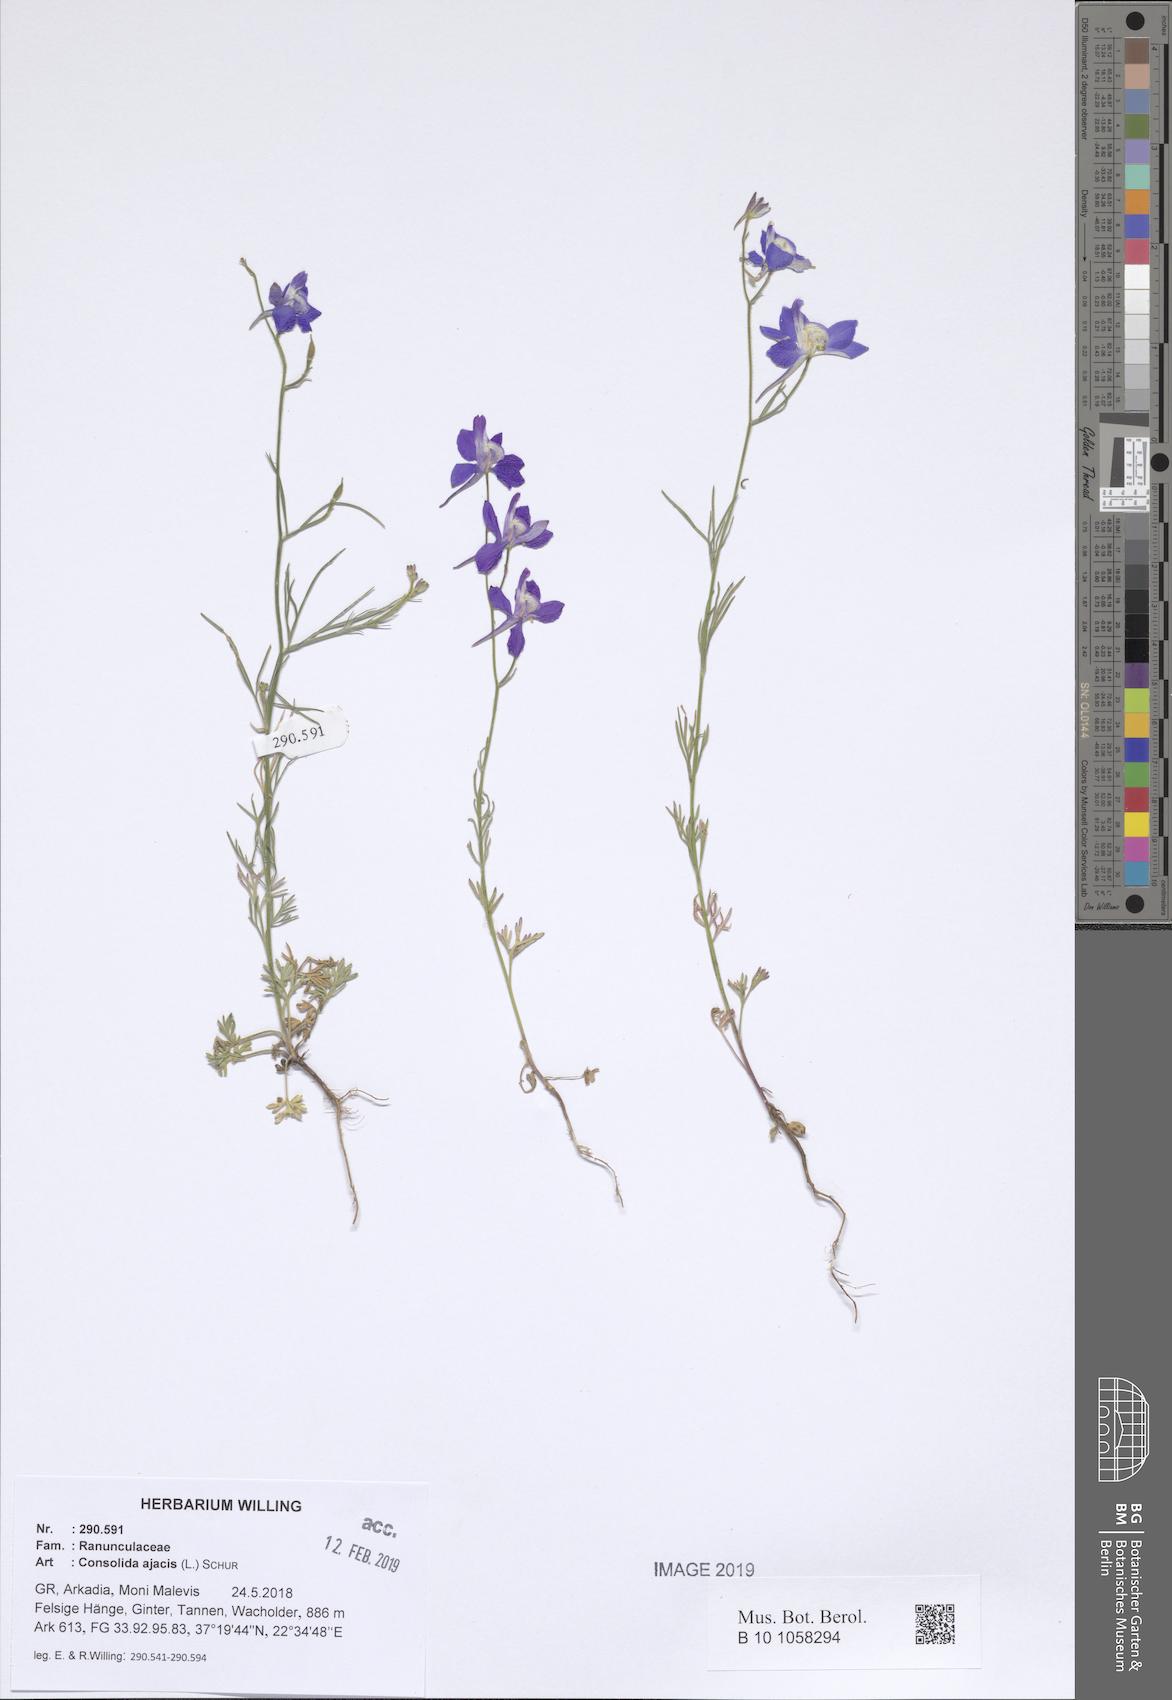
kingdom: Plantae
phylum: Tracheophyta
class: Magnoliopsida
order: Ranunculales
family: Ranunculaceae
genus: Delphinium
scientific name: Delphinium ajacis
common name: Doubtful knight's-spur
